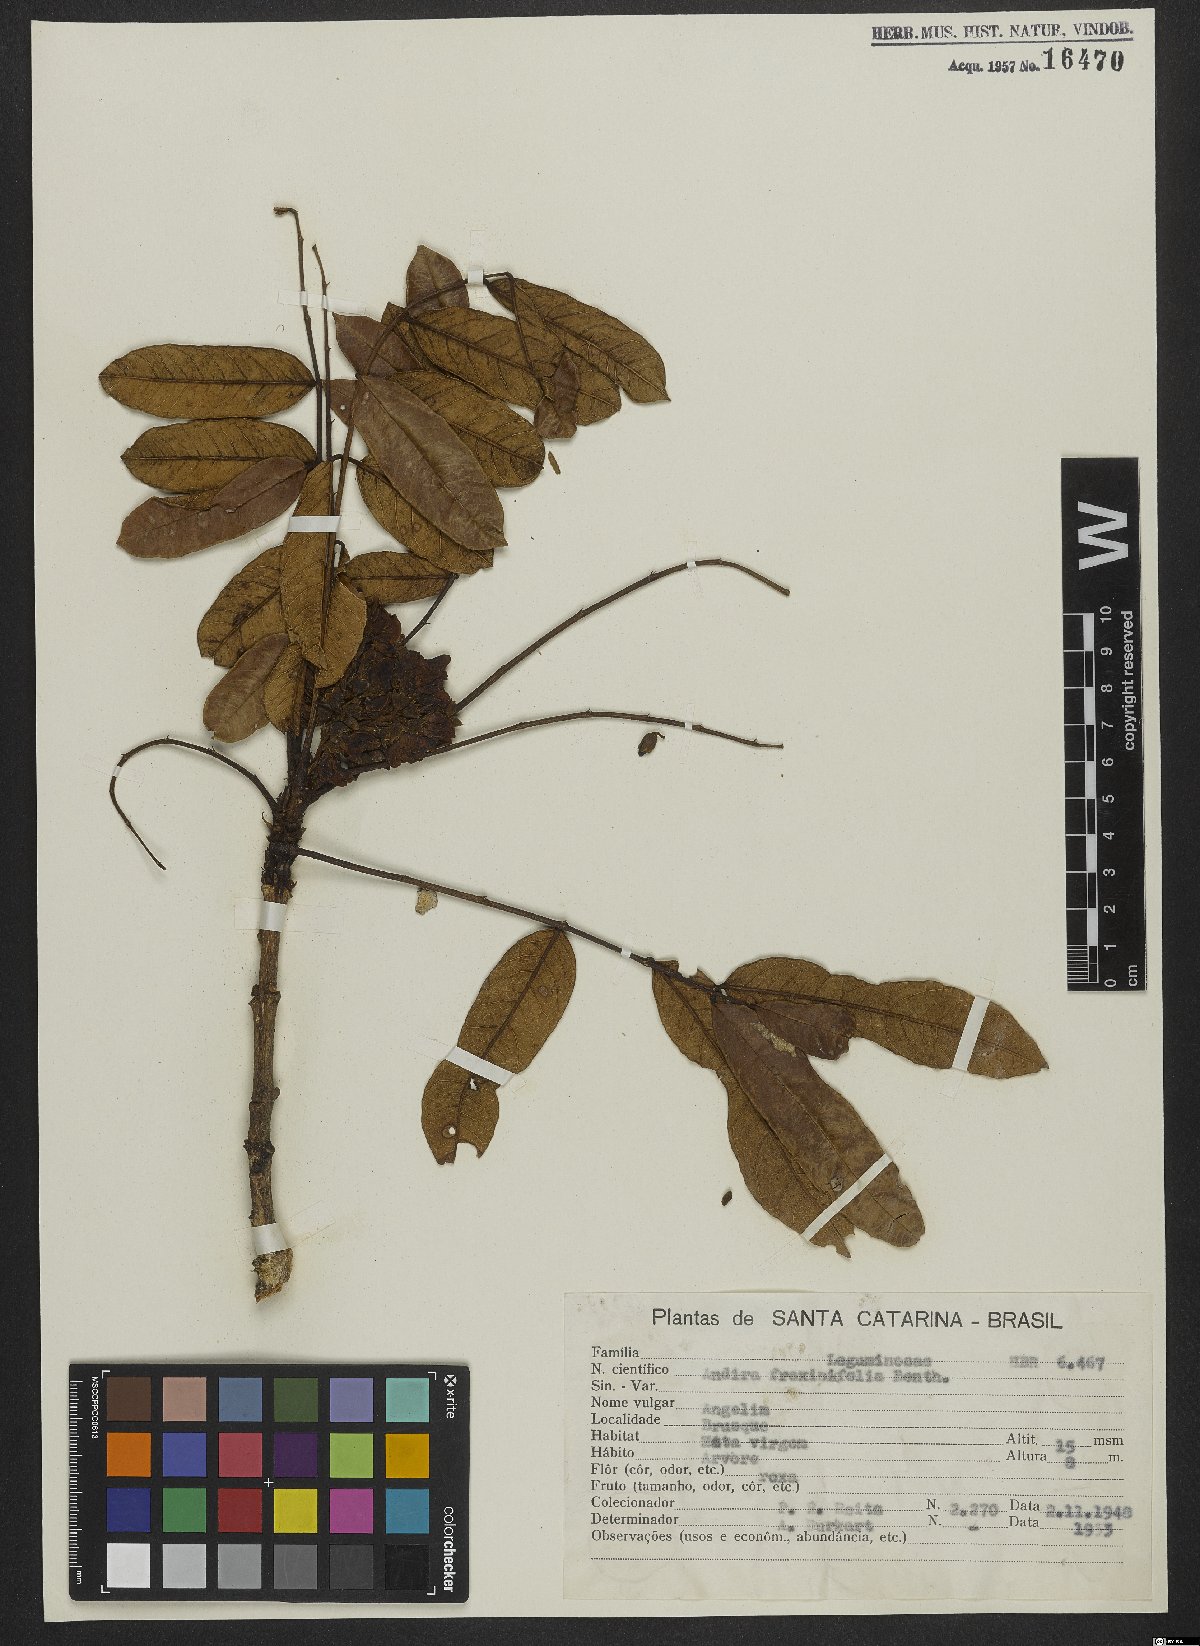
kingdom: Plantae
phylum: Tracheophyta
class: Magnoliopsida
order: Fabales
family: Fabaceae
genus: Andira
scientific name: Andira fraxinifolia
